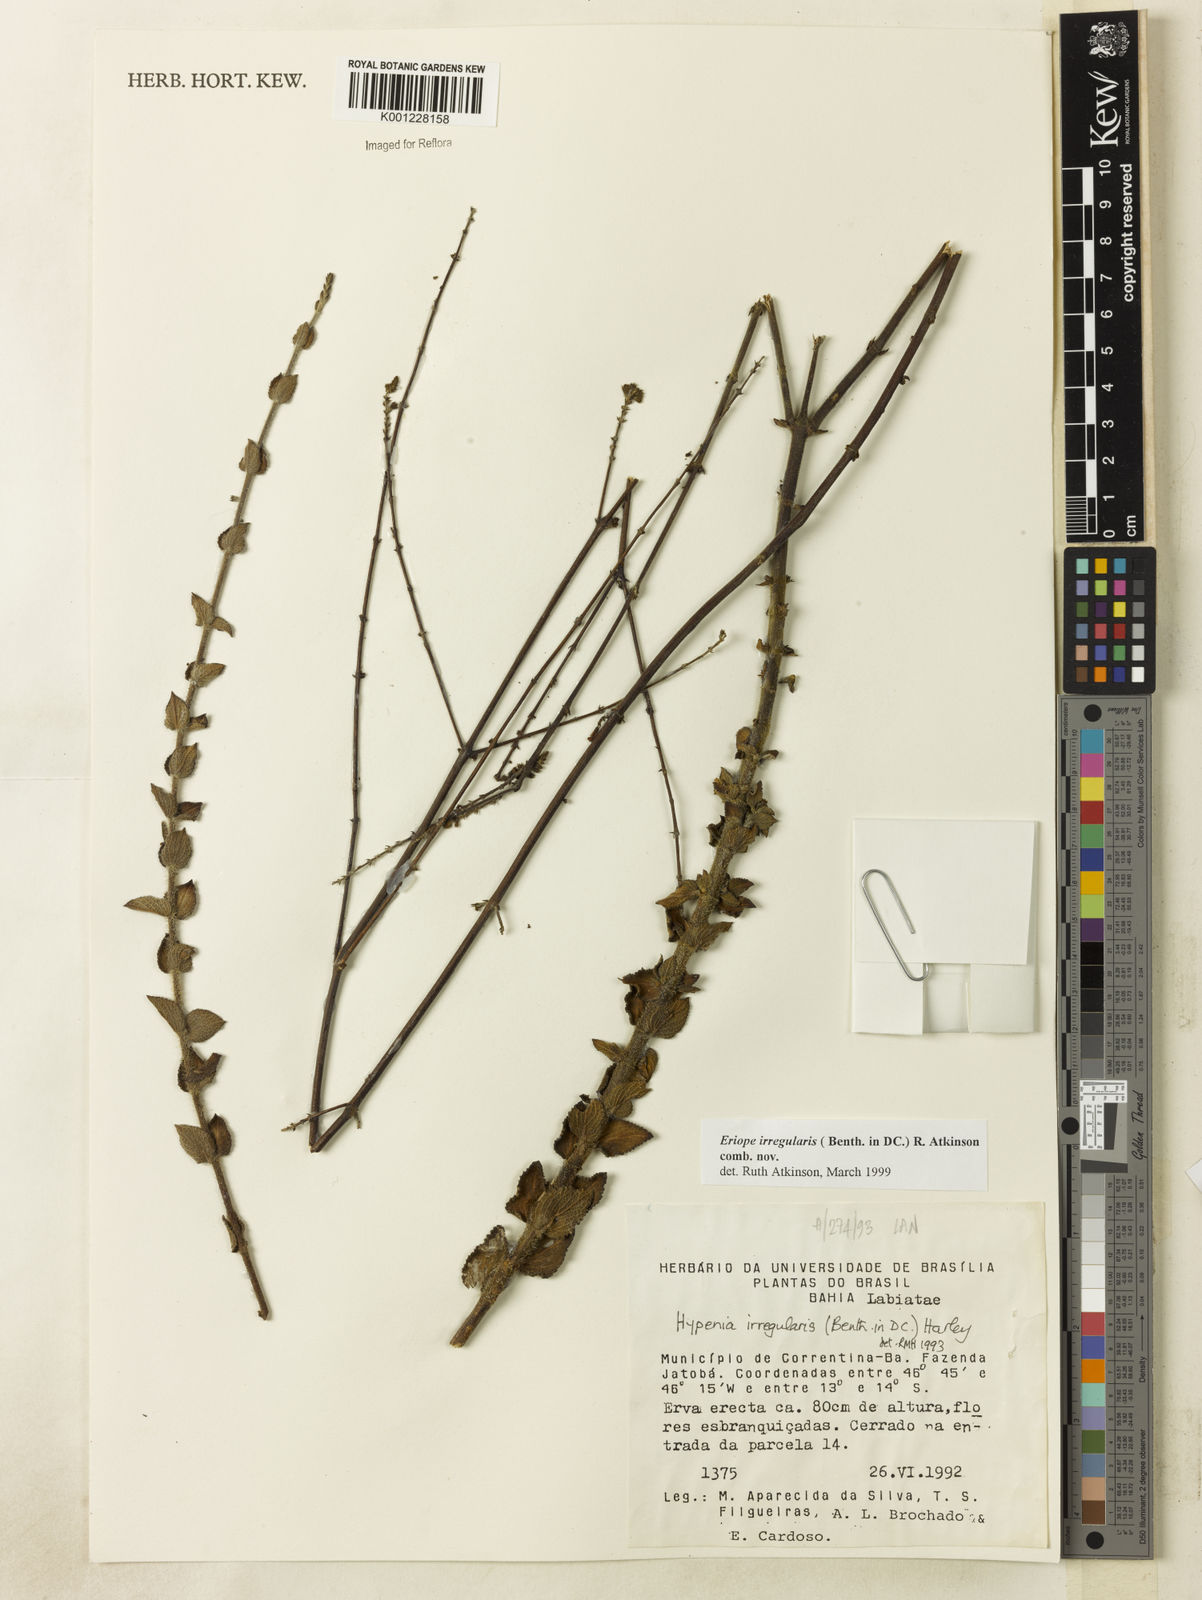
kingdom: Plantae
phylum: Tracheophyta
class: Magnoliopsida
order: Lamiales
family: Lamiaceae
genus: Hypenia
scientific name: Hypenia irregularis
